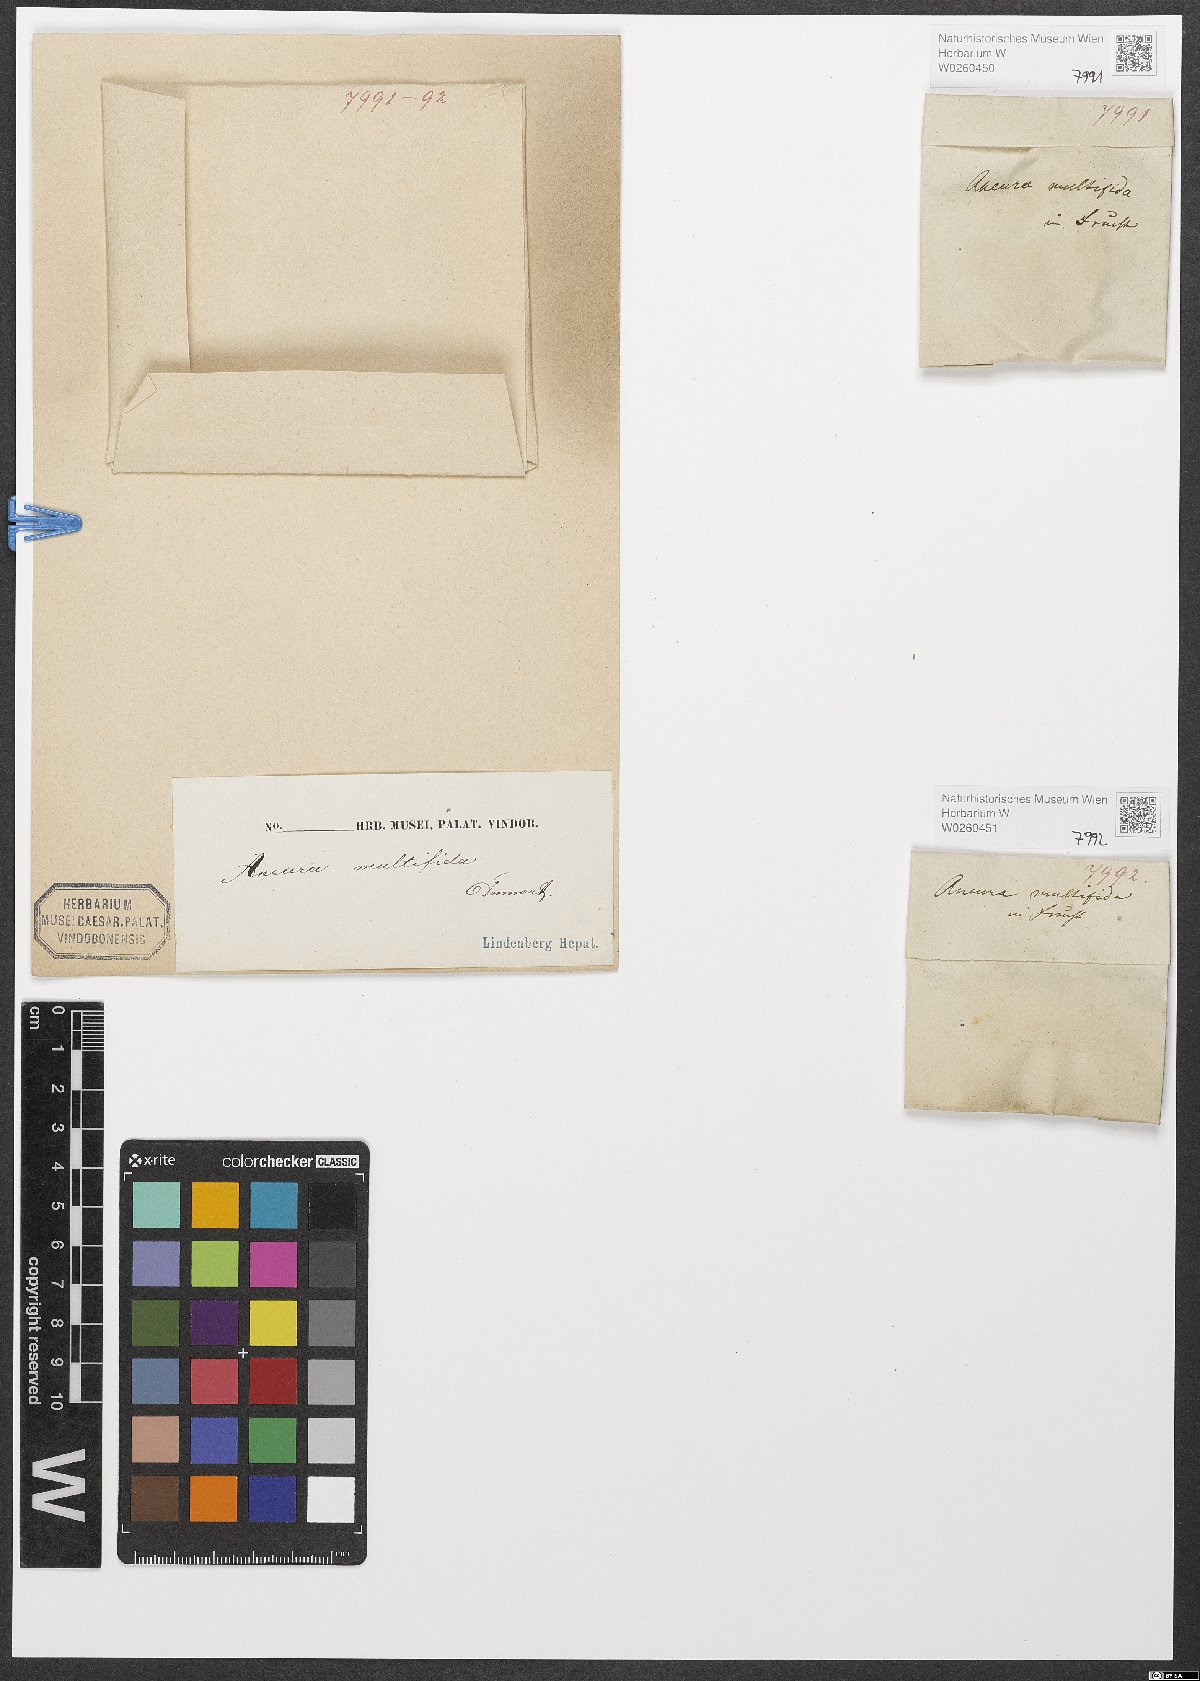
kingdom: Plantae
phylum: Marchantiophyta
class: Jungermanniopsida
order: Metzgeriales
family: Aneuraceae
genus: Riccardia
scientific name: Riccardia multifida
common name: Delicate germanderwort
